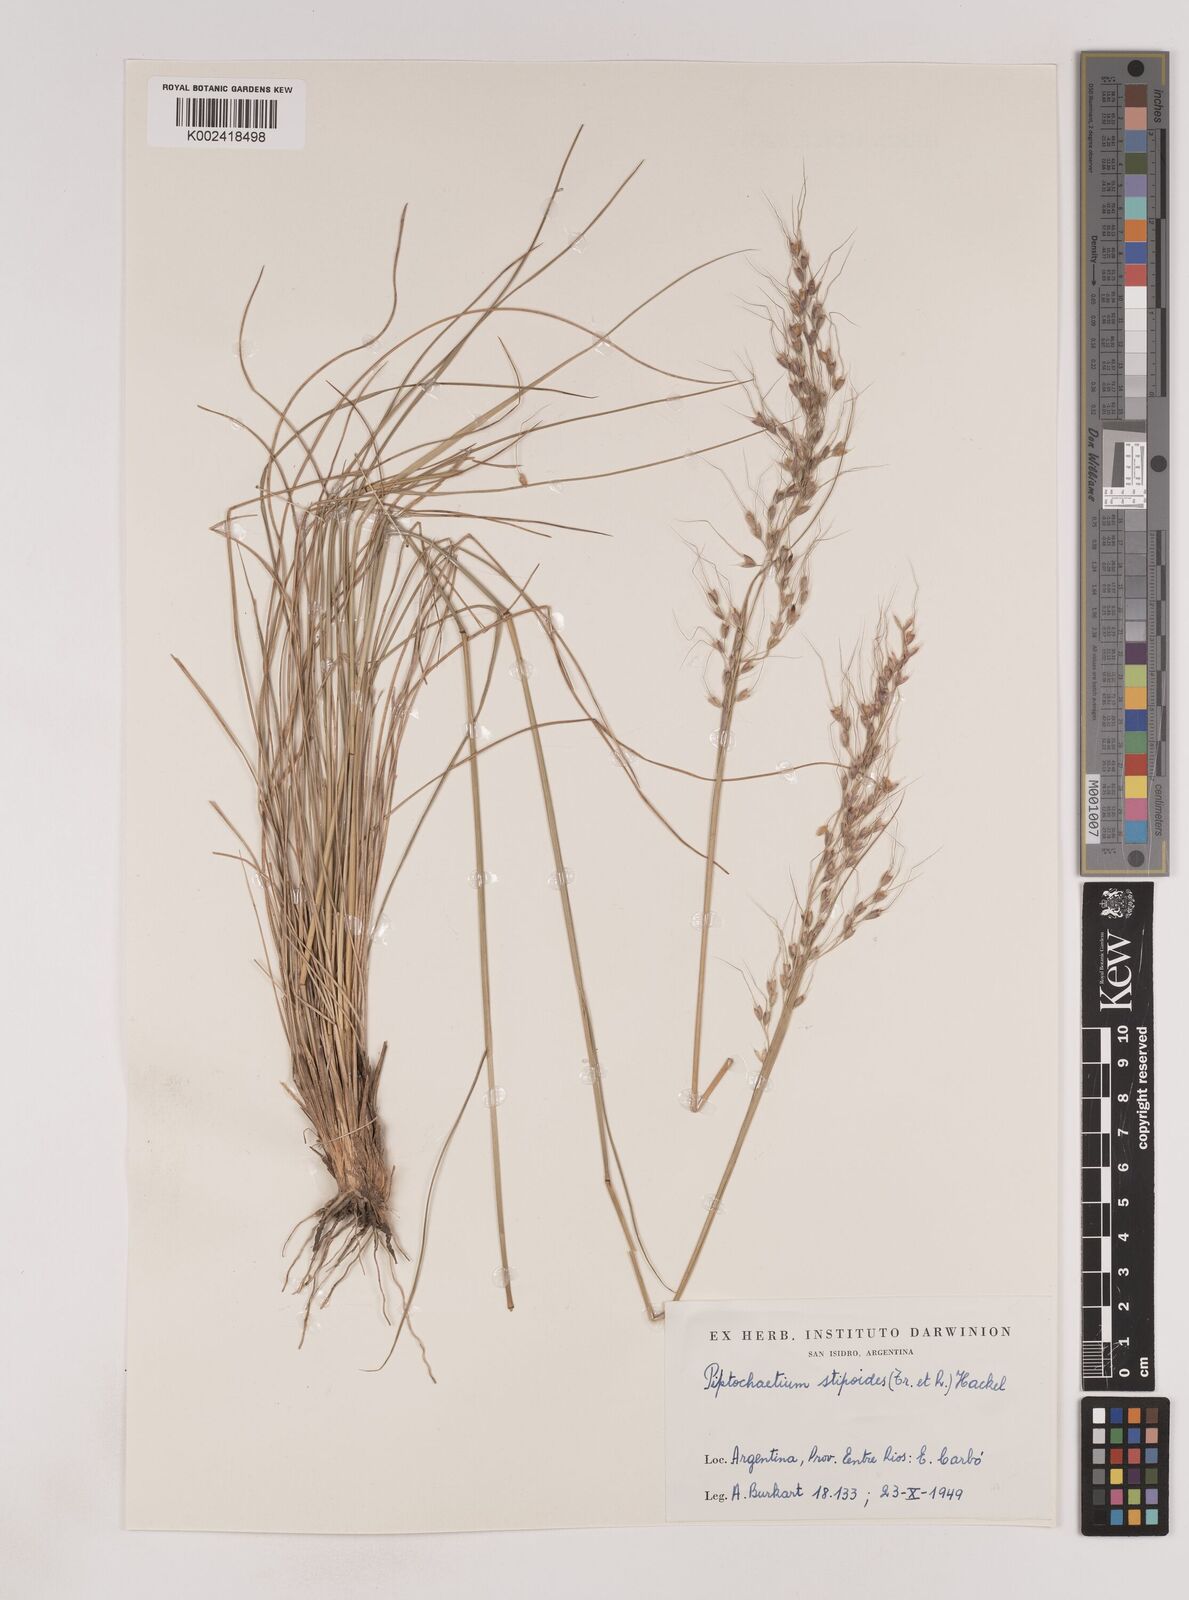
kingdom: Plantae
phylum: Tracheophyta
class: Liliopsida
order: Poales
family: Poaceae
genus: Piptochaetium
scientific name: Piptochaetium stipoides
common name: Purple speargrass
